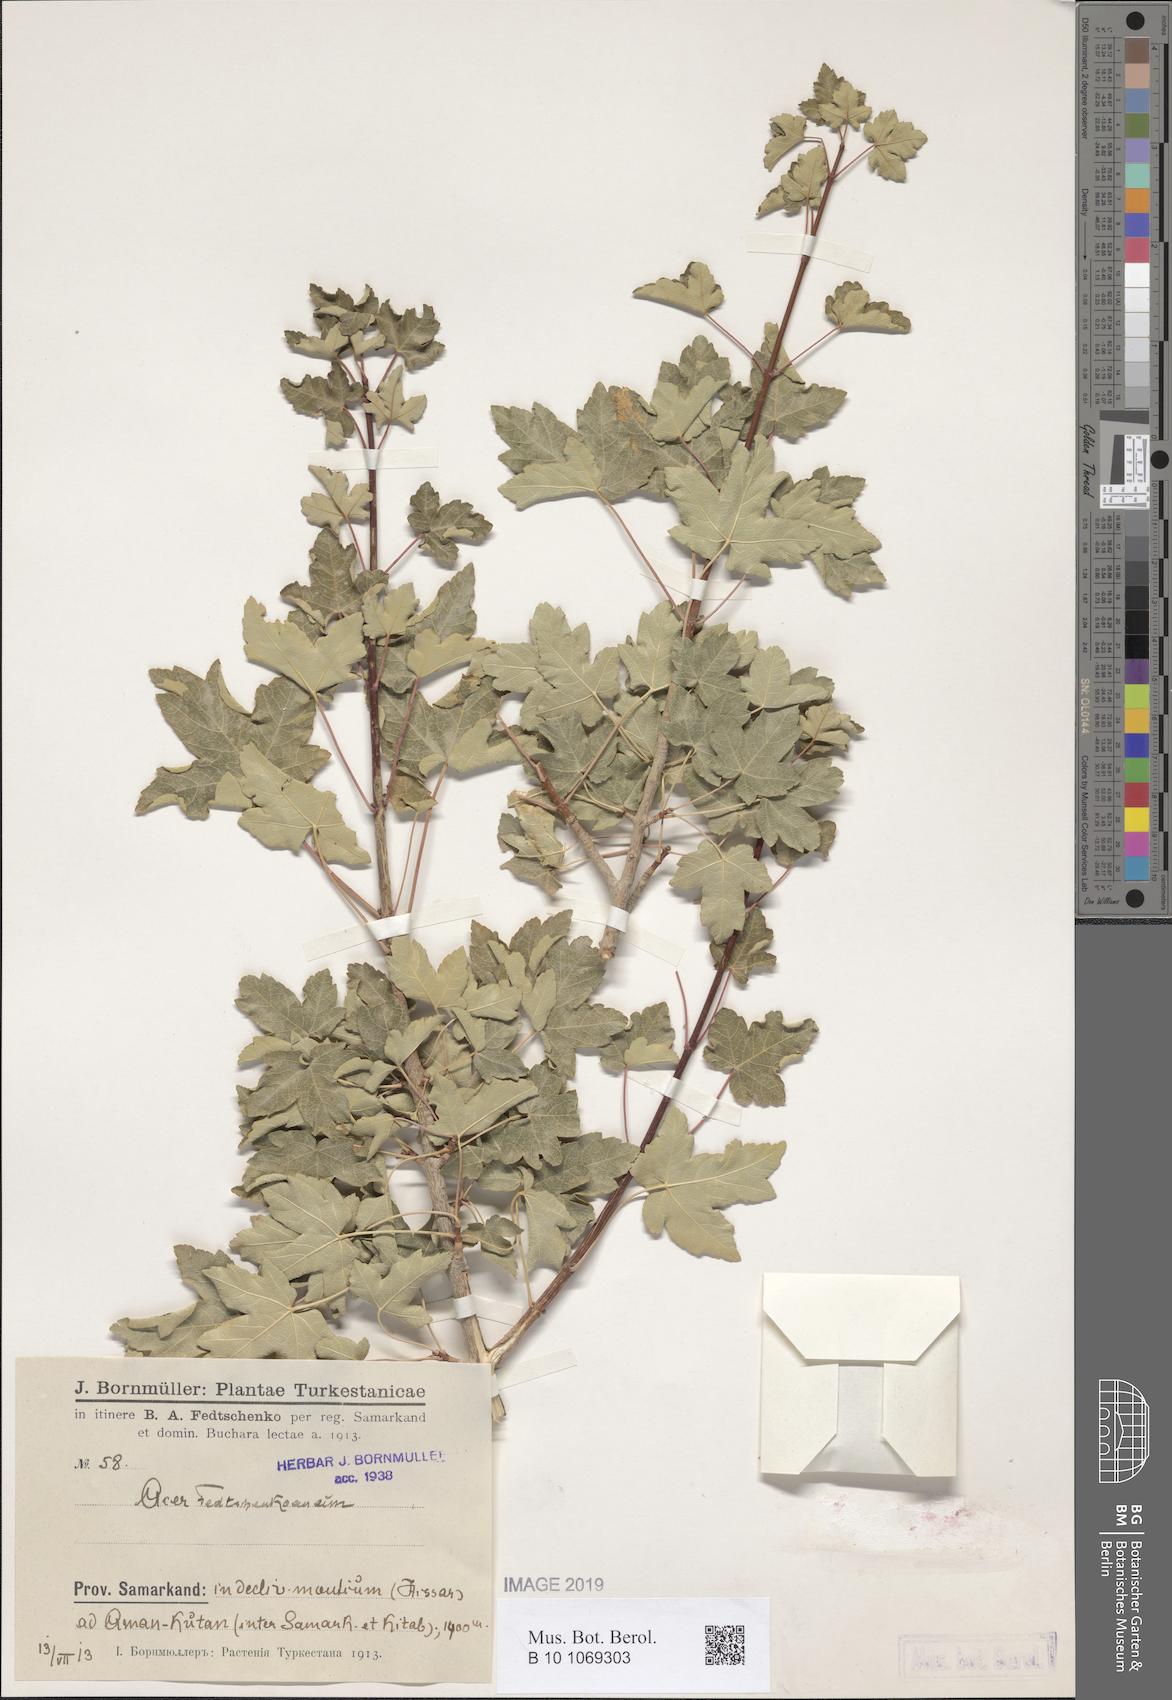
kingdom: Plantae
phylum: Tracheophyta
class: Magnoliopsida
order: Sapindales
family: Sapindaceae
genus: Acer
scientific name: Acer pentapomicum
